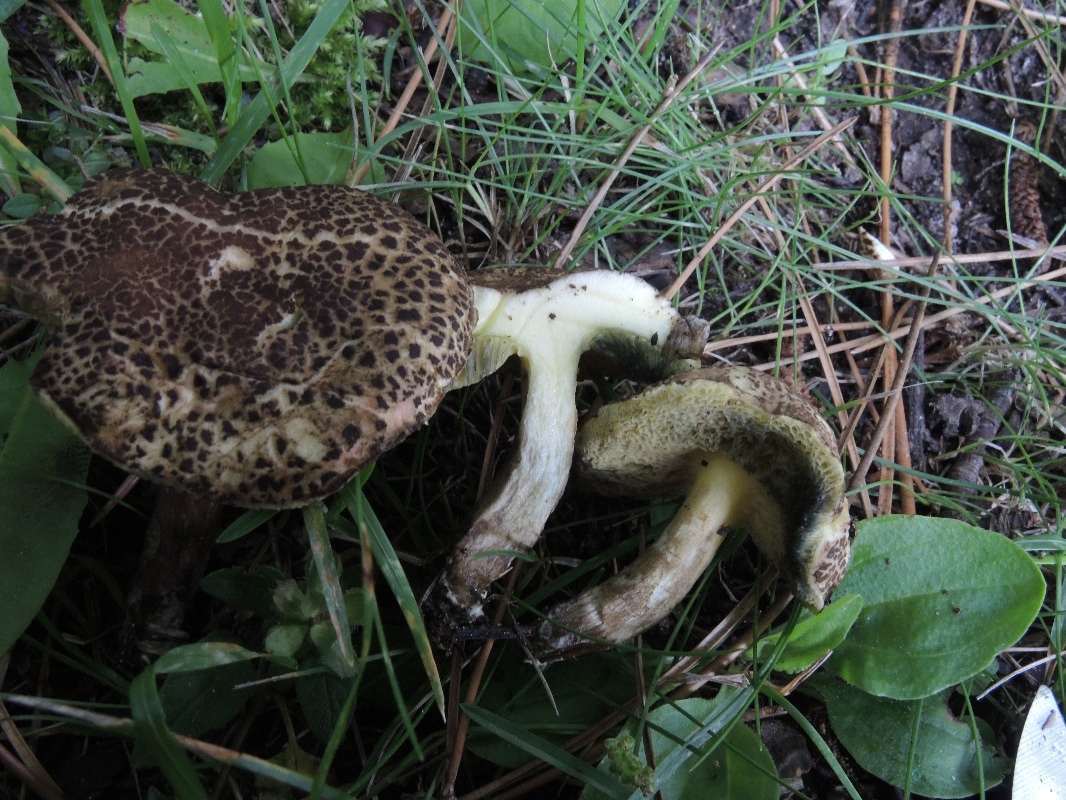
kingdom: Fungi
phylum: Basidiomycota
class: Agaricomycetes
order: Boletales
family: Boletaceae
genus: Xerocomellus
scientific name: Xerocomellus porosporus
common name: hvidsprukken rørhat
